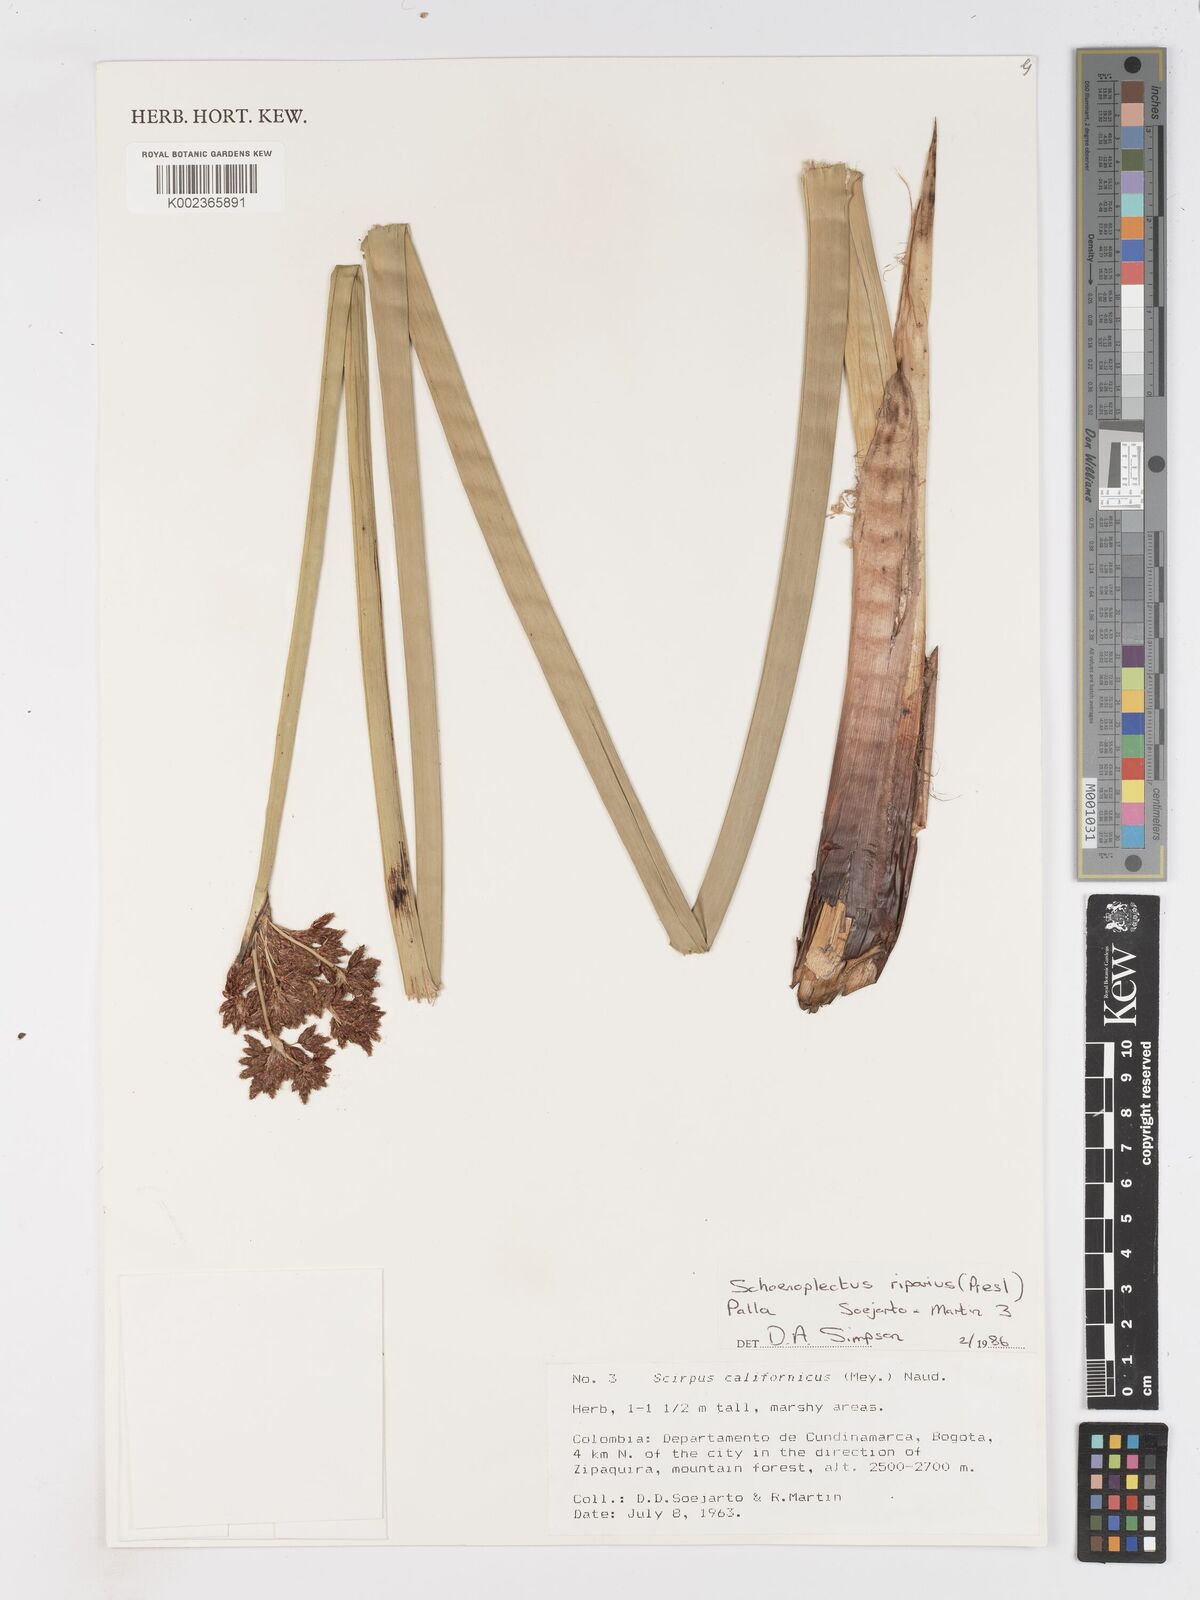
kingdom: Plantae
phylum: Tracheophyta
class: Liliopsida
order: Poales
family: Cyperaceae
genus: Schoenoplectus
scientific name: Schoenoplectus californicus
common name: California bulrush
